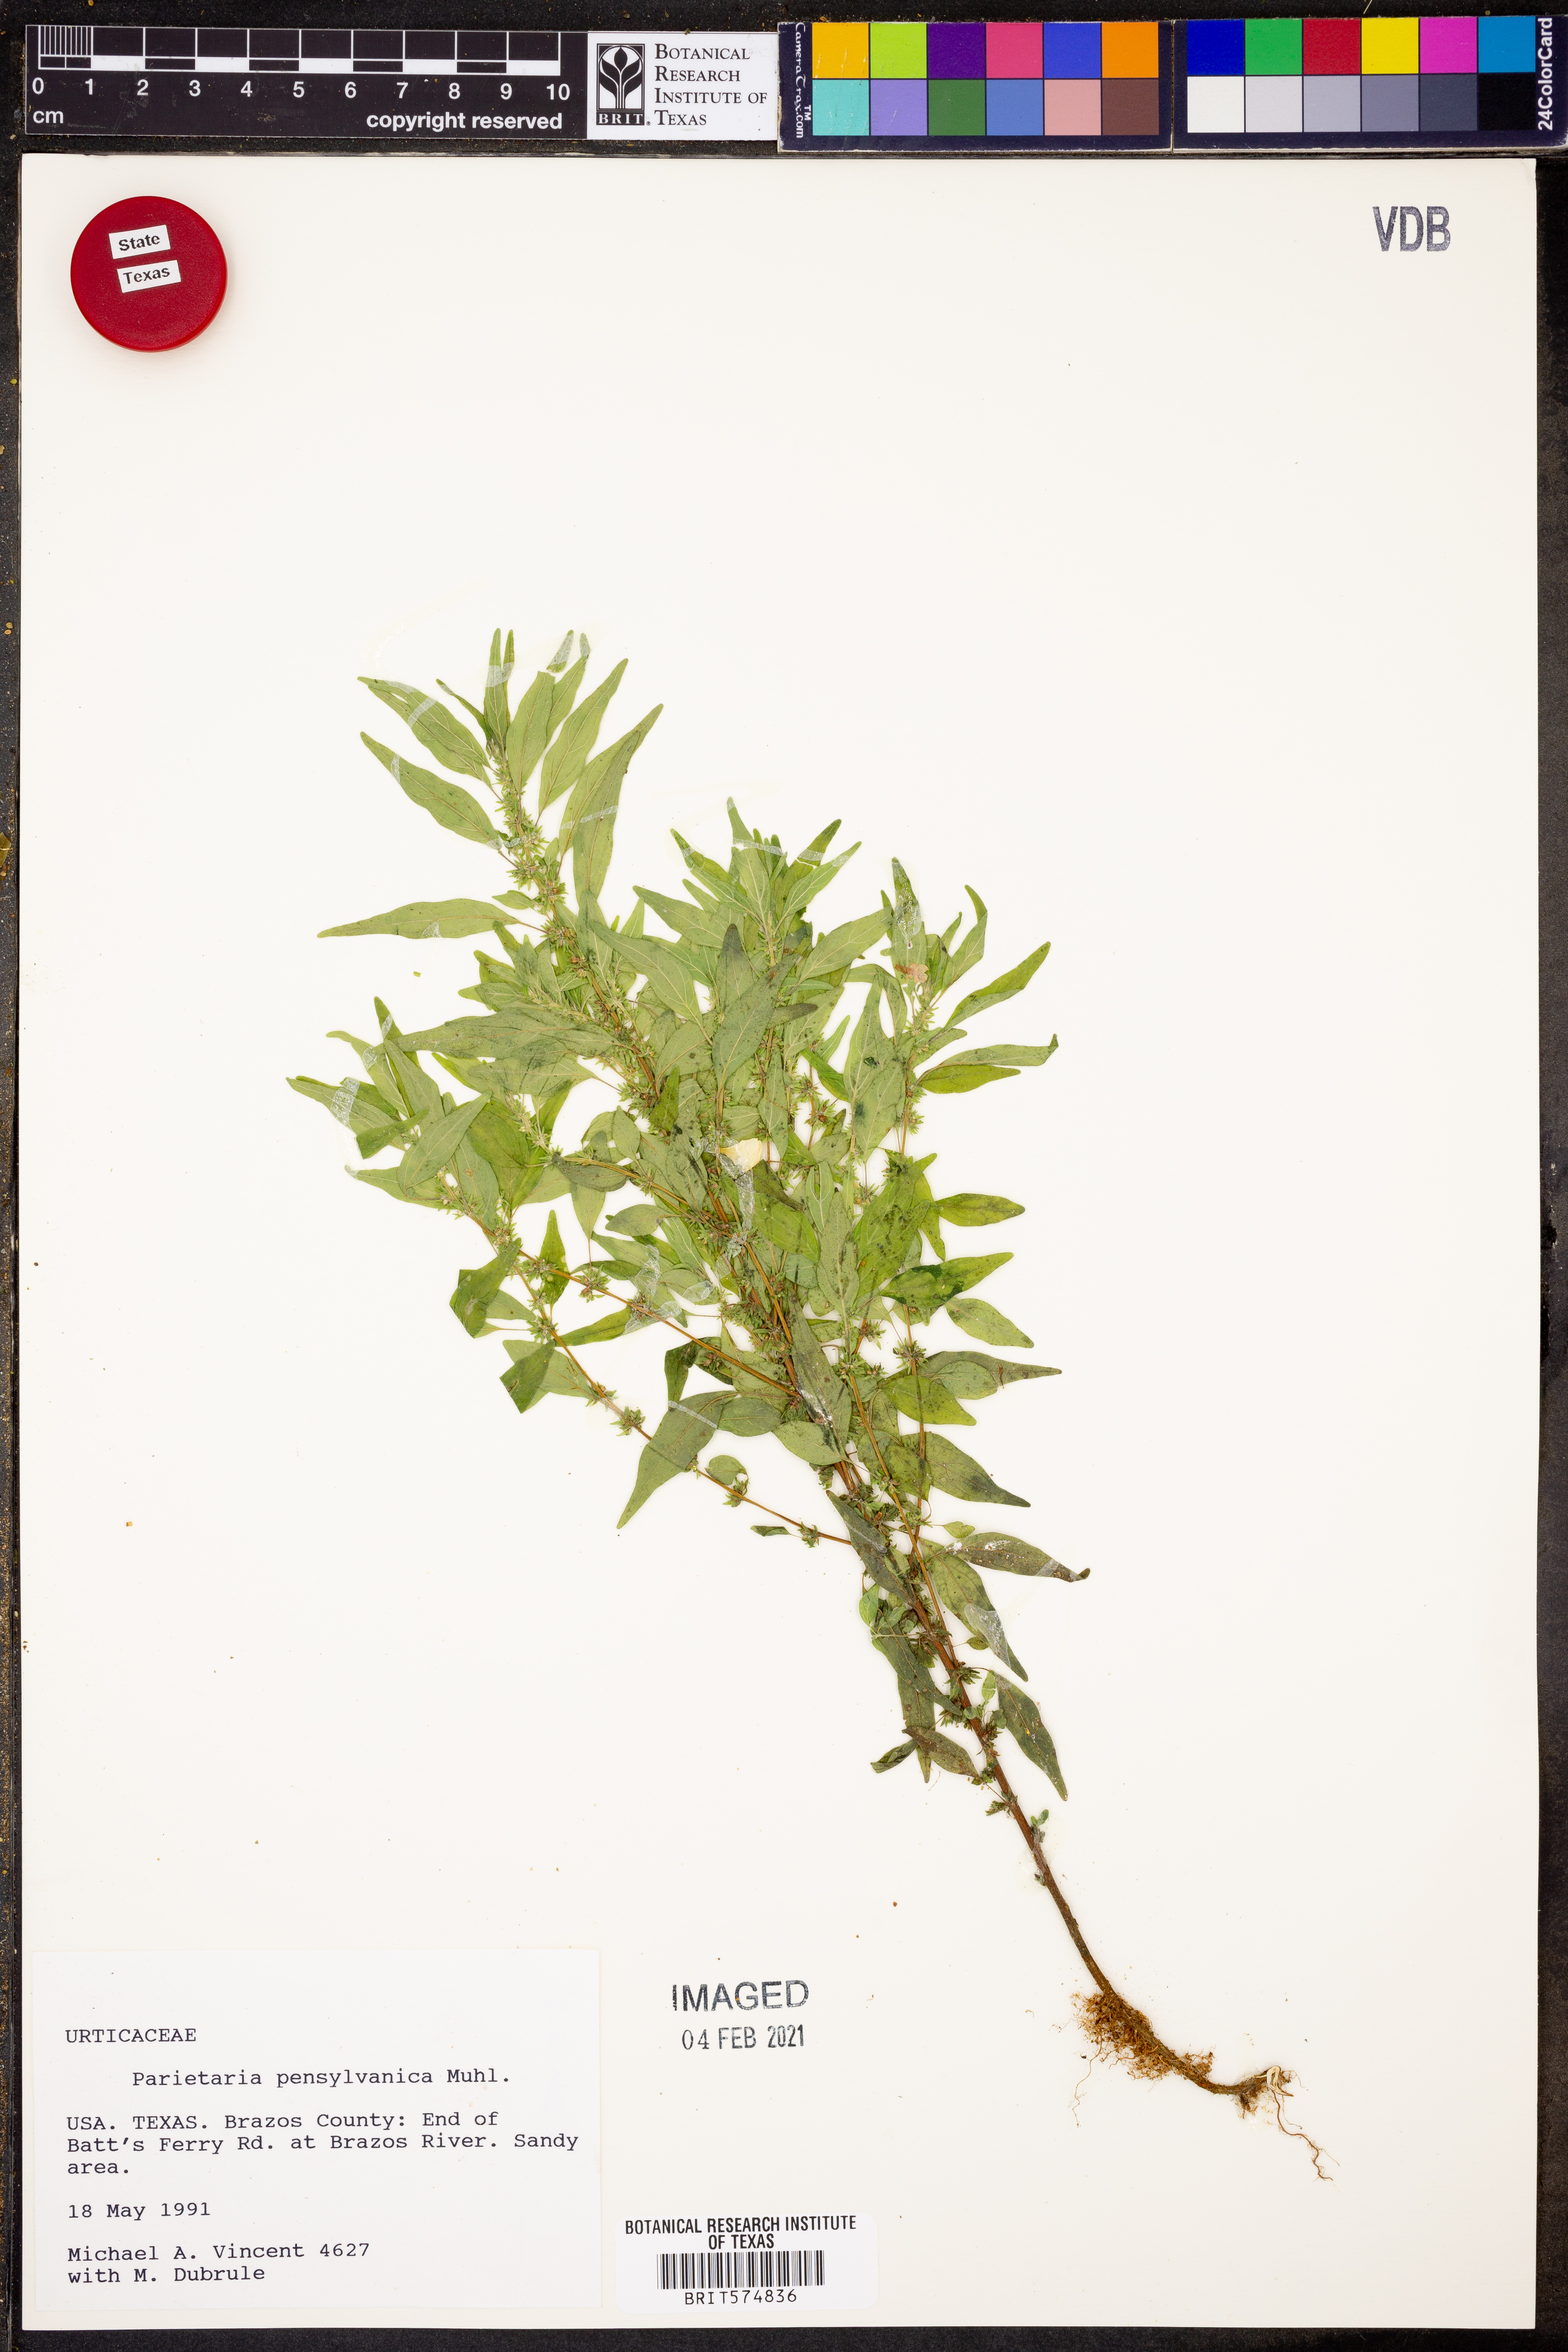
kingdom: Plantae
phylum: Tracheophyta
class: Magnoliopsida
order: Rosales
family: Urticaceae
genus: Parietaria
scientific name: Parietaria pensylvanica
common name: Pennsylvania pellitory
